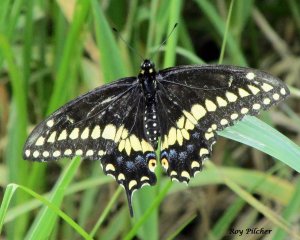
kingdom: Animalia
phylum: Arthropoda
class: Insecta
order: Lepidoptera
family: Papilionidae
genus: Papilio
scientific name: Papilio polyxenes
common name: Black Swallowtail
